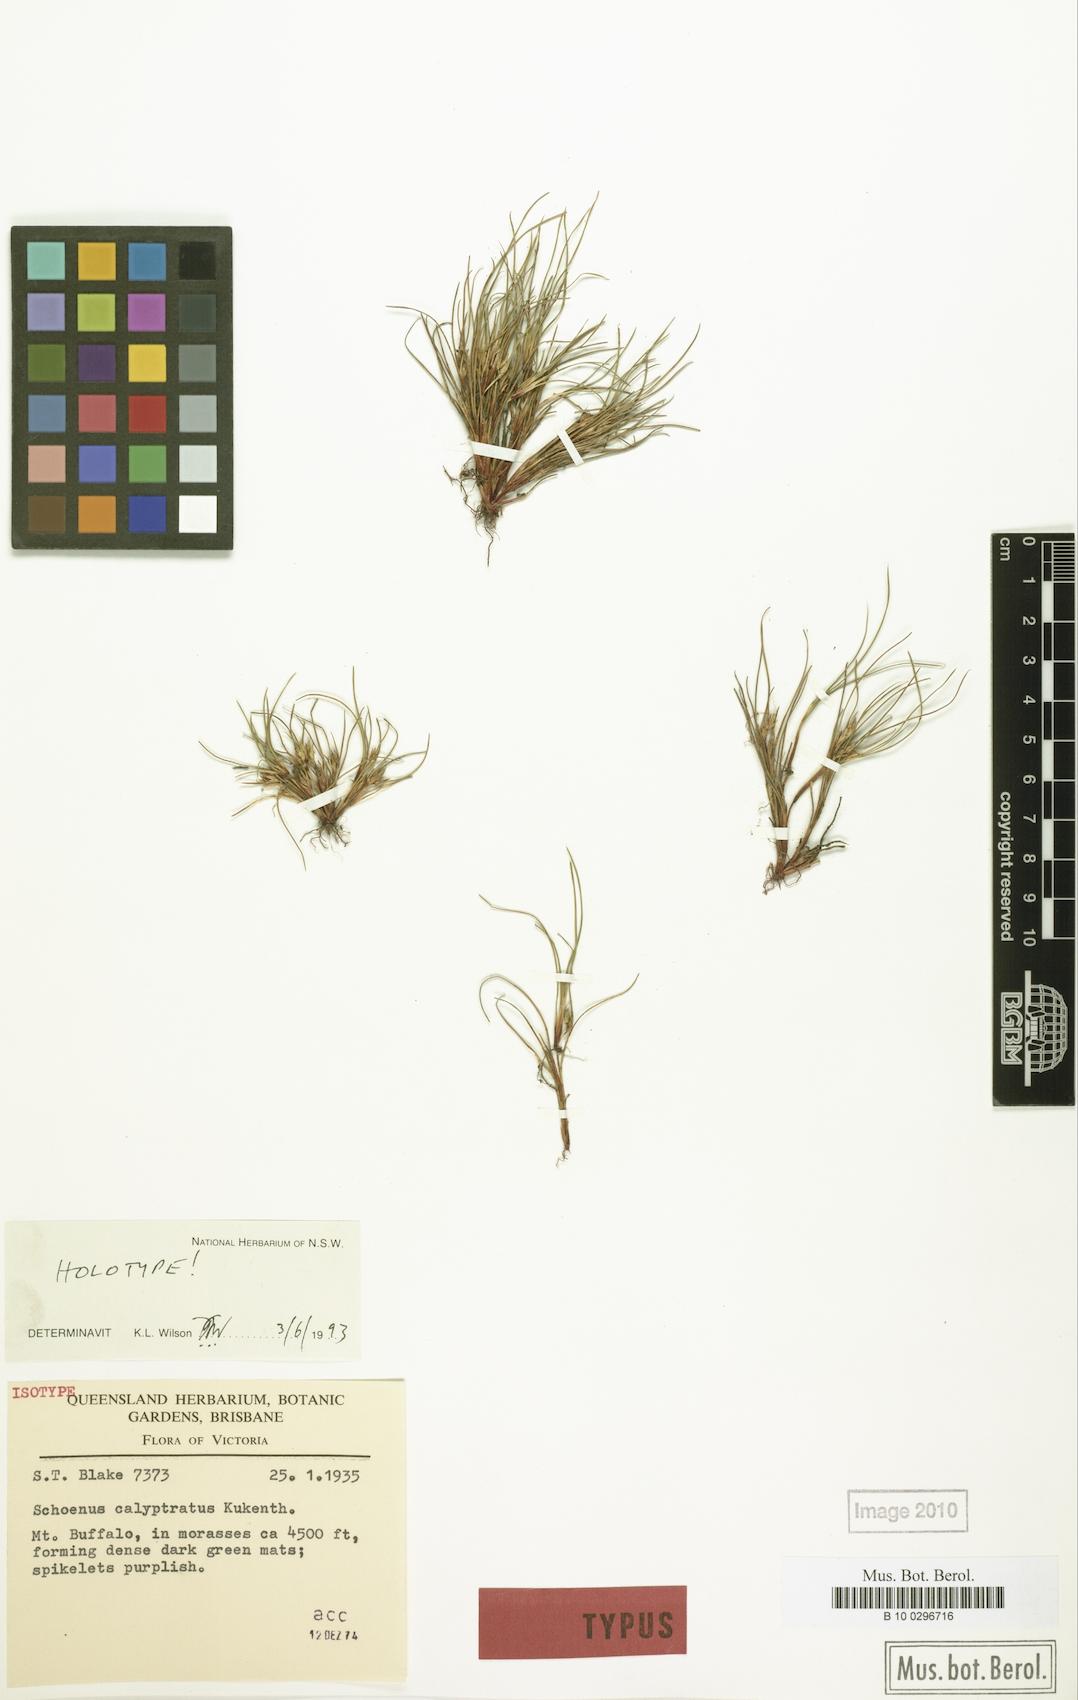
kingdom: Plantae
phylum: Tracheophyta
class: Liliopsida
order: Poales
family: Cyperaceae
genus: Schoenus
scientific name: Schoenus calyptratus
